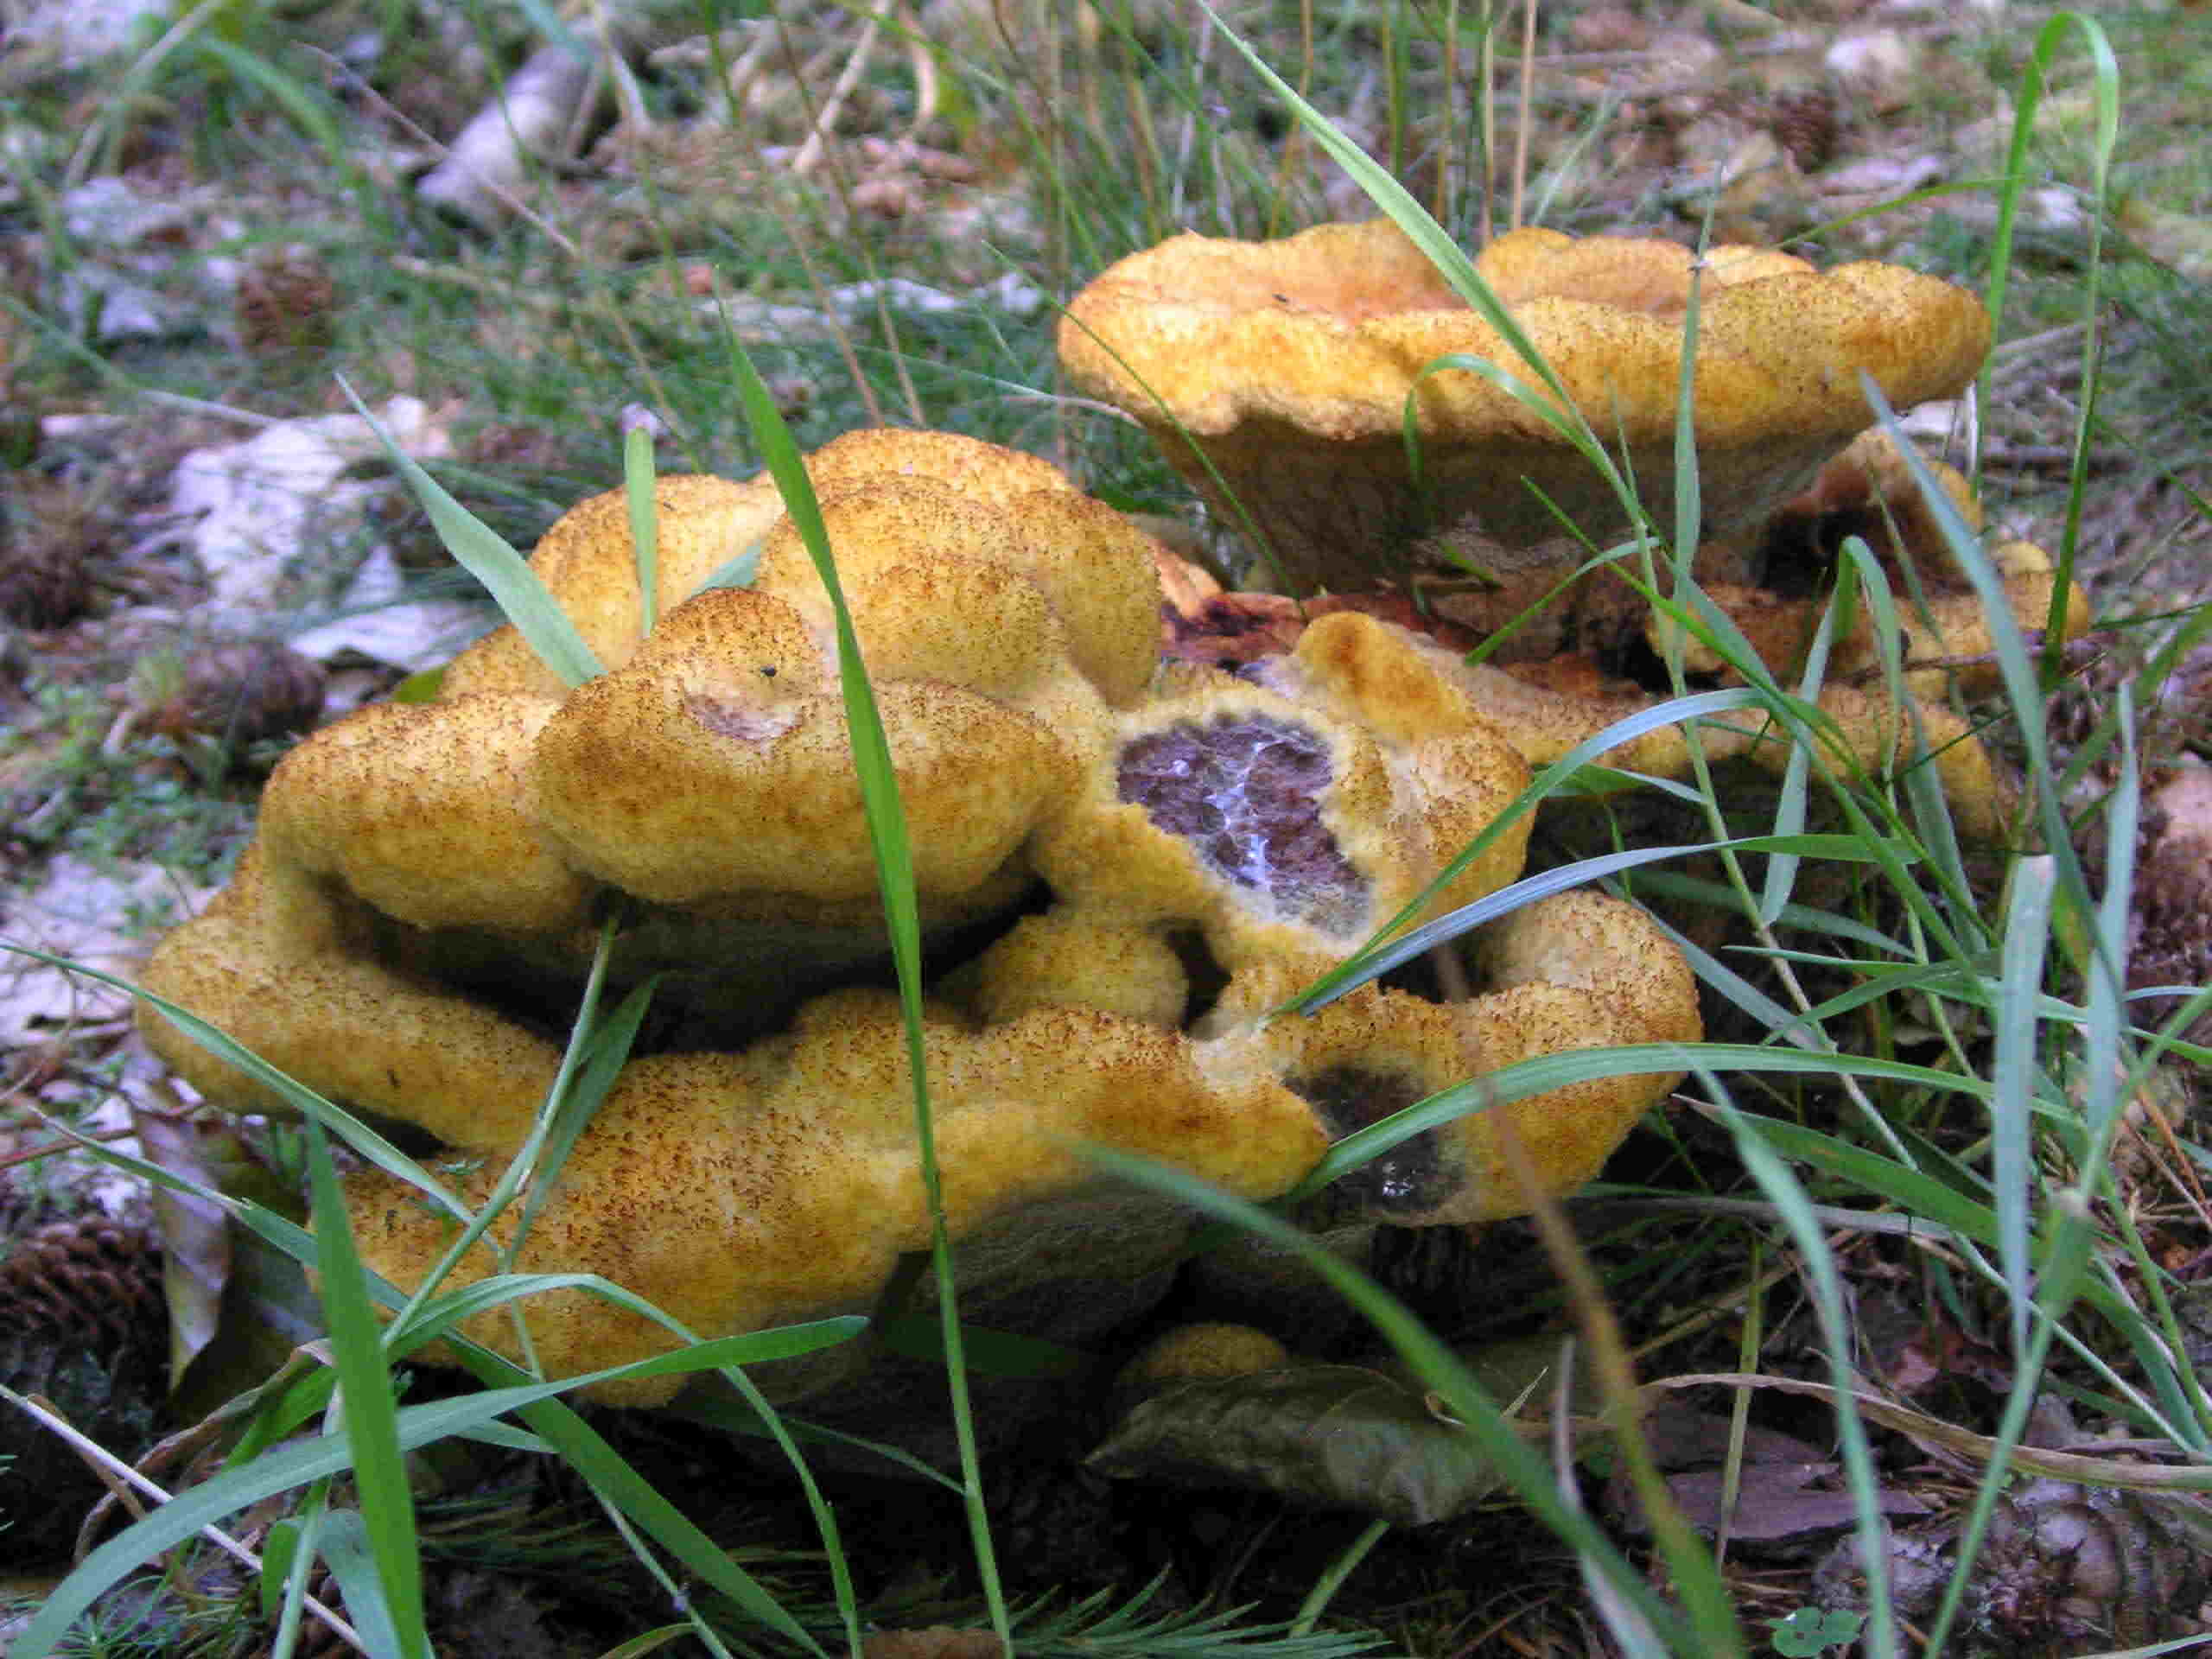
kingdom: Fungi
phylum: Basidiomycota
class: Agaricomycetes
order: Polyporales
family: Laetiporaceae
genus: Phaeolus
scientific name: Phaeolus schweinitzii
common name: brunporesvamp
